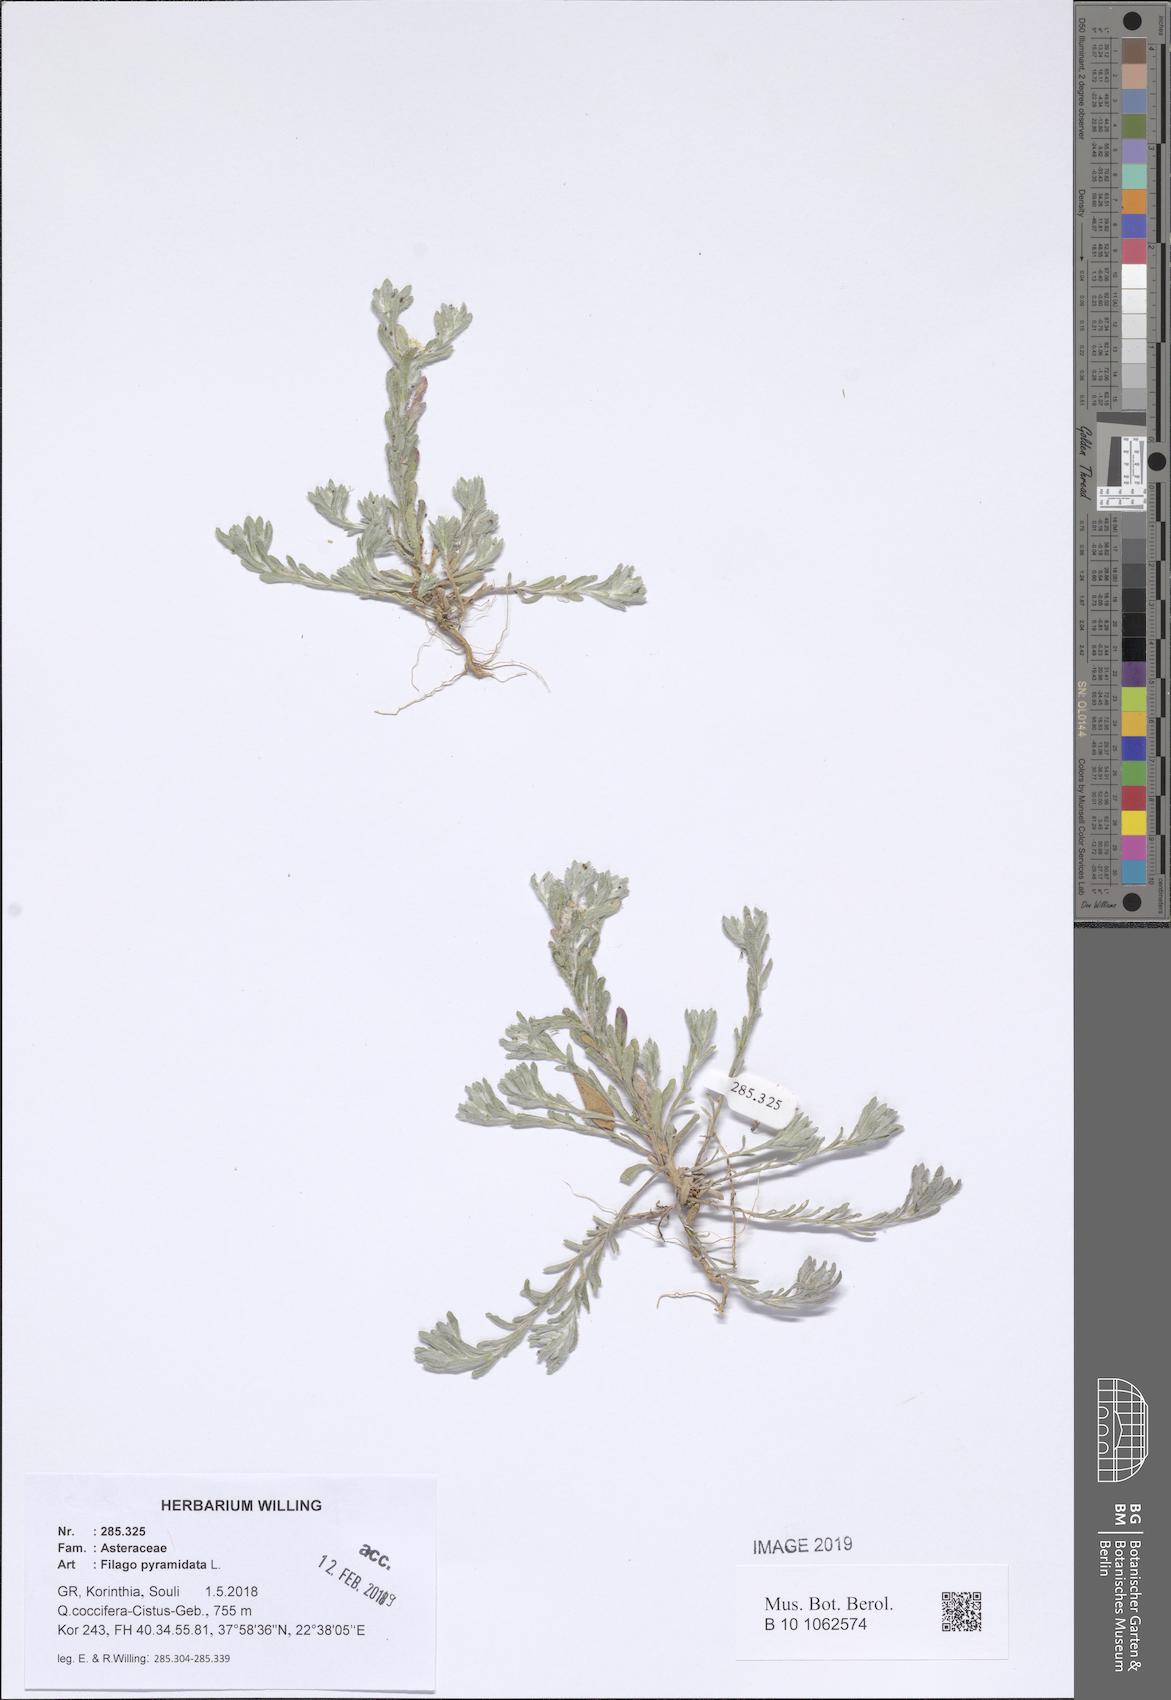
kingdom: Plantae
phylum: Tracheophyta
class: Magnoliopsida
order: Asterales
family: Asteraceae
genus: Filago
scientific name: Filago pyramidata
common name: Broad-leaved cudweed
